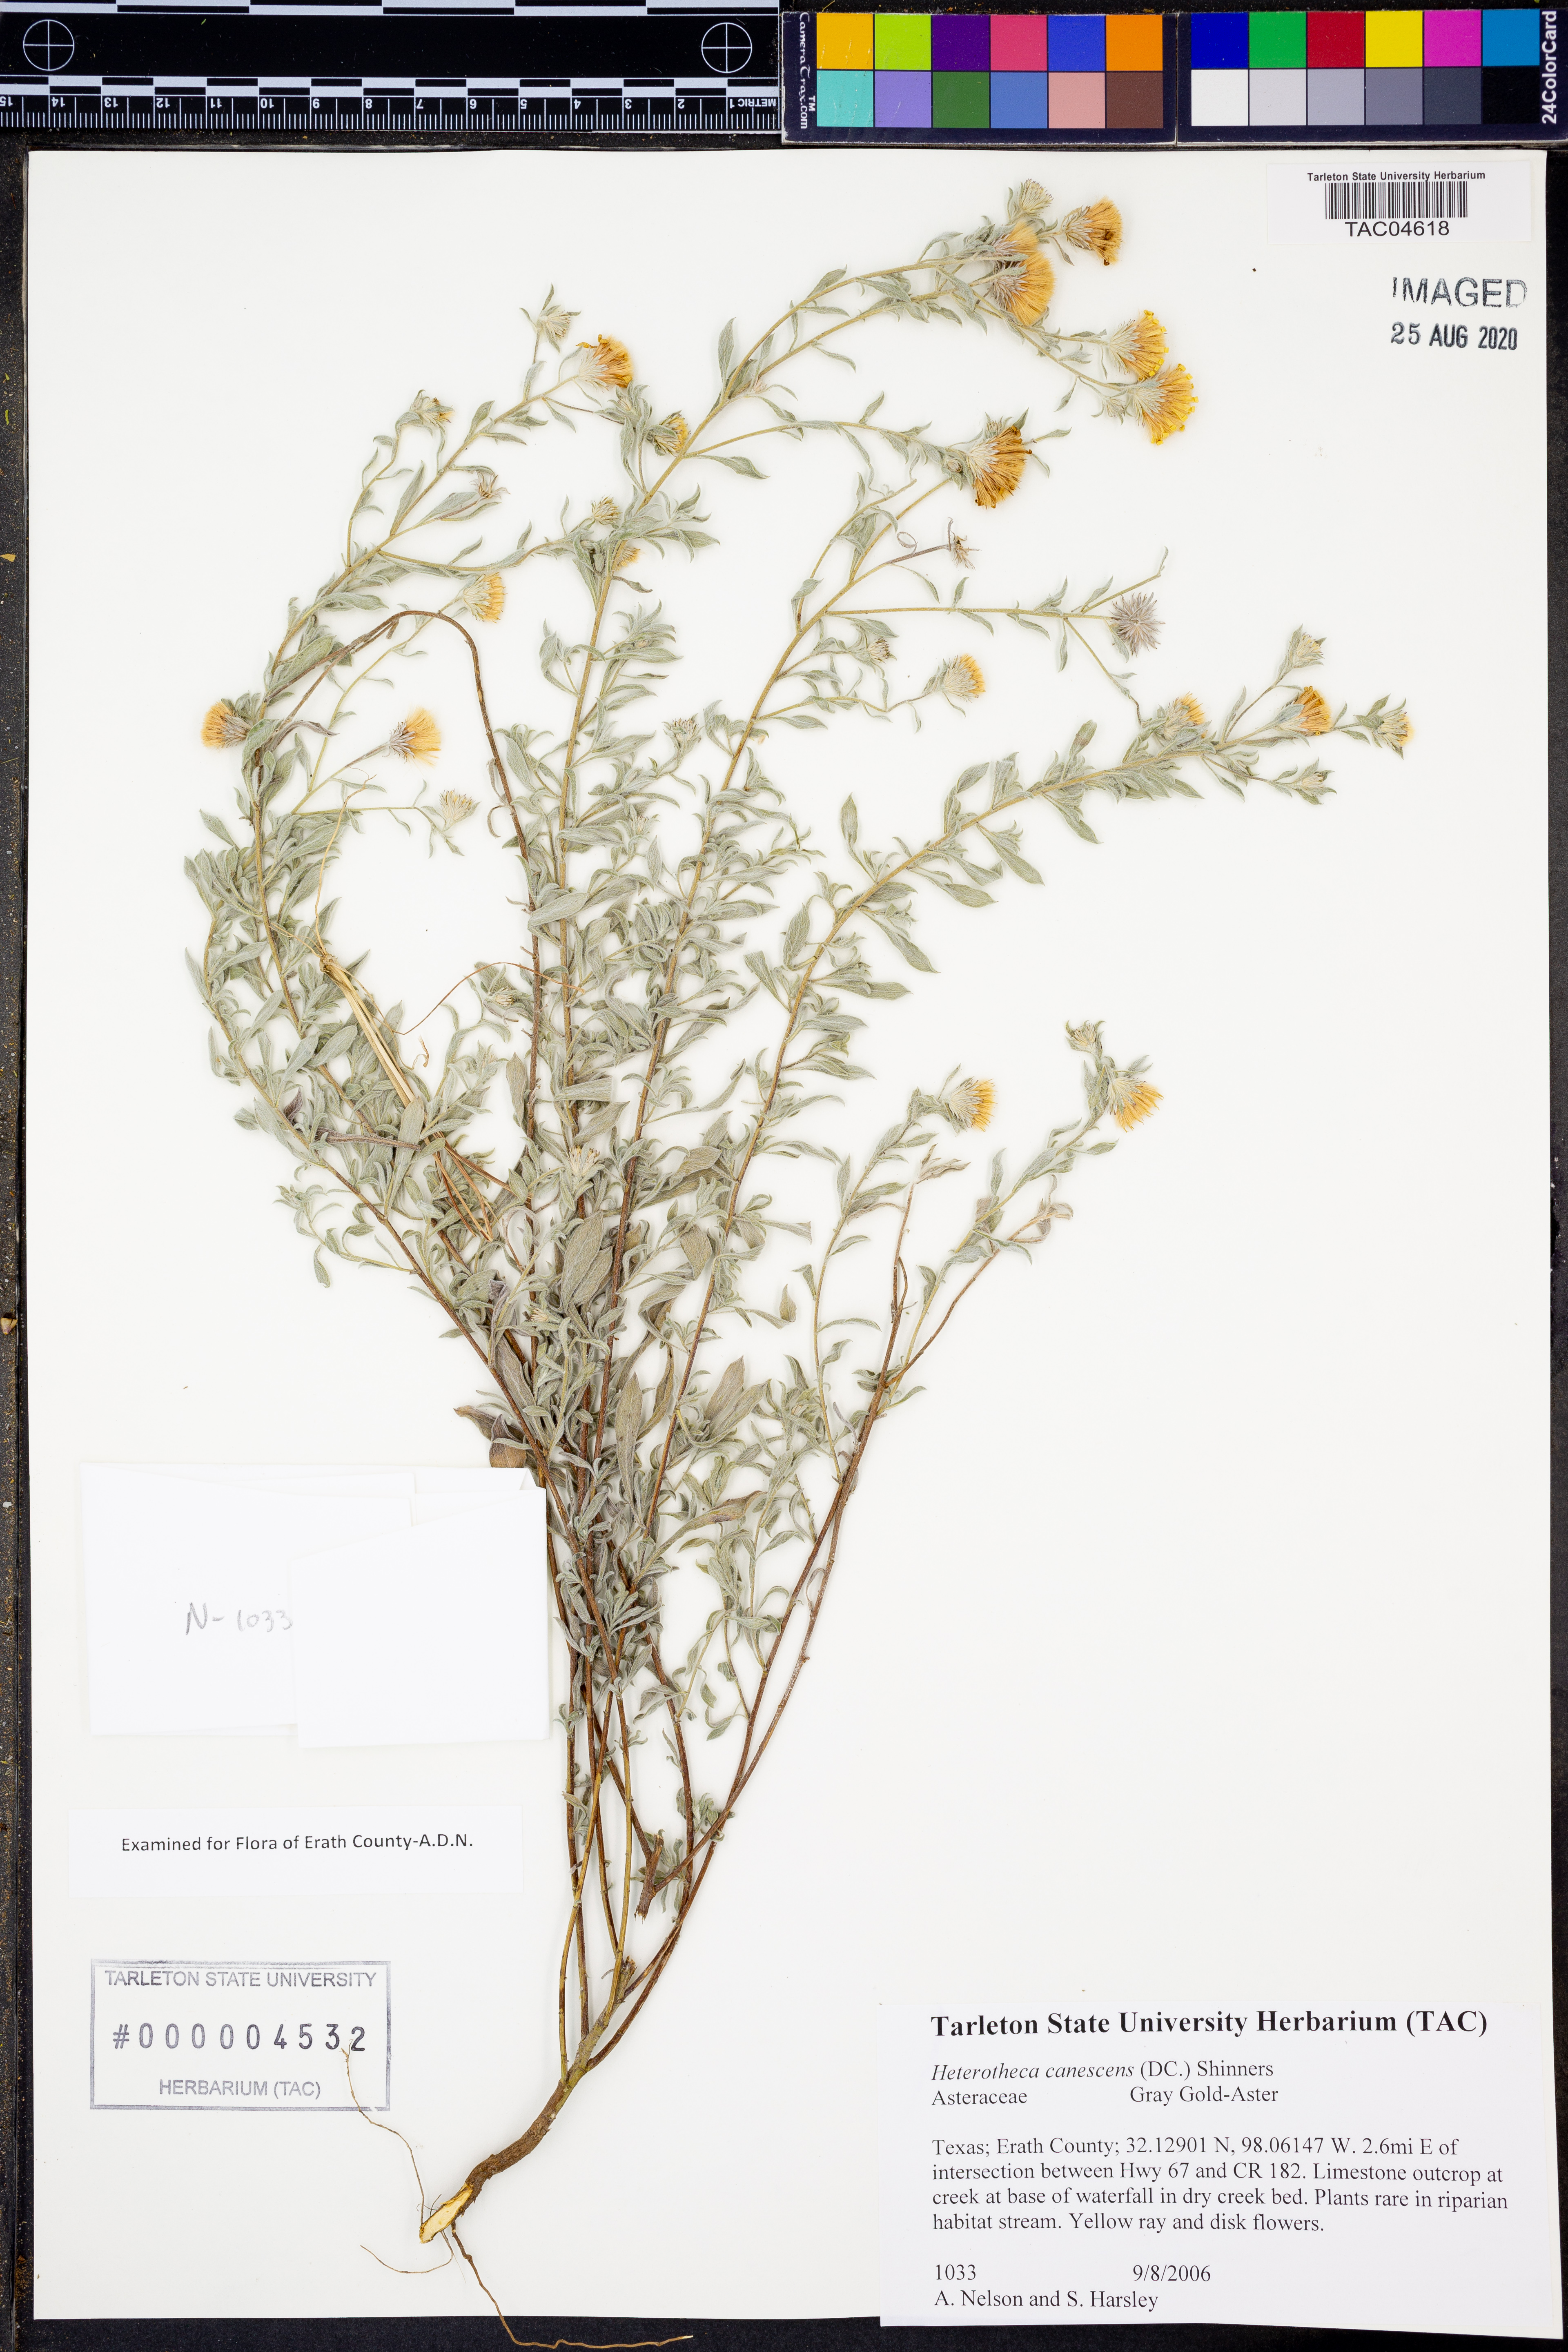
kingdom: Plantae
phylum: Tracheophyta
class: Magnoliopsida
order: Asterales
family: Asteraceae
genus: Heterotheca
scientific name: Heterotheca canescens
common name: Hoary golden-aster
